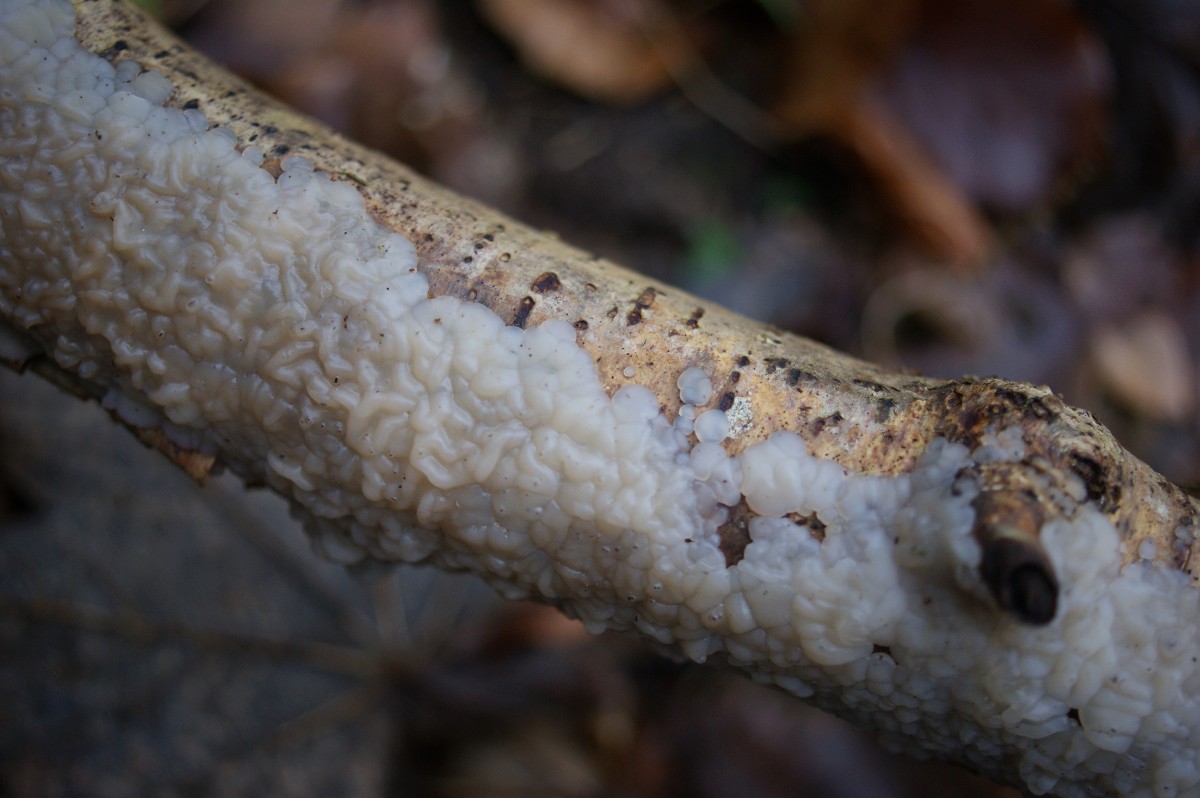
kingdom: Fungi
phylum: Basidiomycota
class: Agaricomycetes
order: Auriculariales
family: Auriculariaceae
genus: Exidia
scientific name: Exidia thuretiana
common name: hvidlig bævretop
